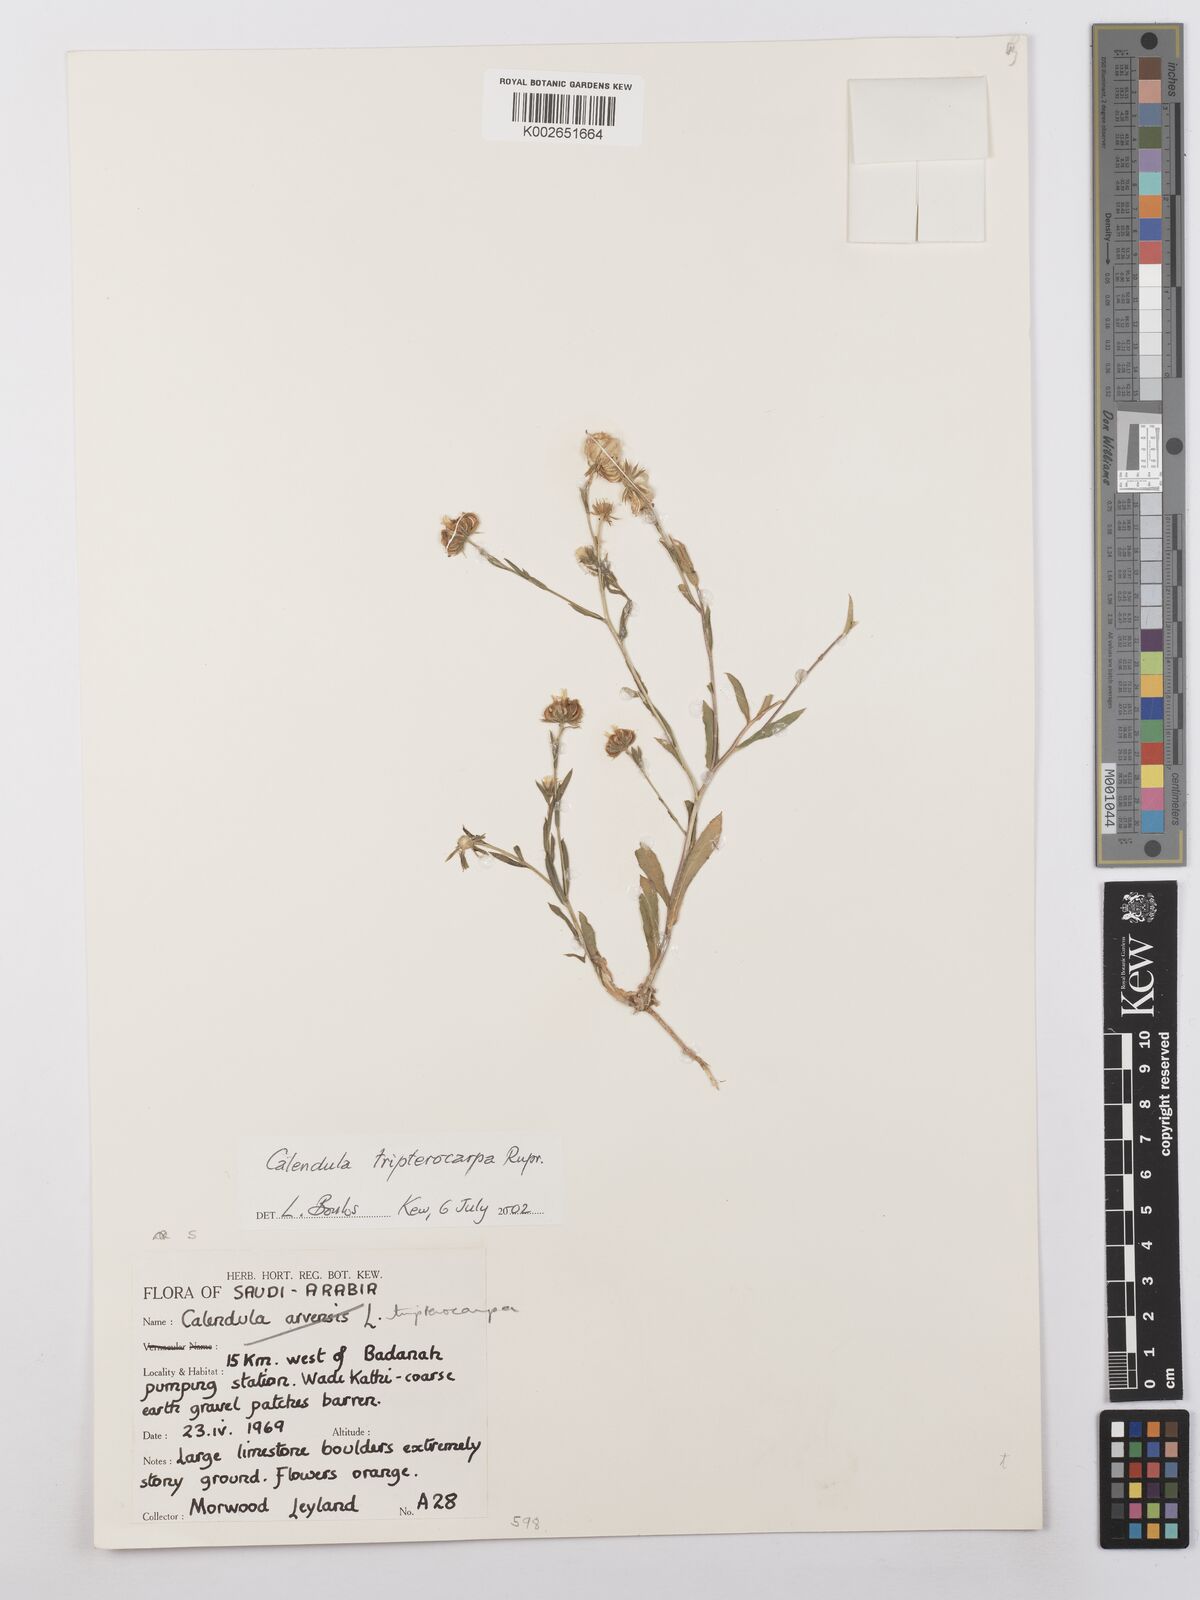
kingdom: Plantae
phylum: Tracheophyta
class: Magnoliopsida
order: Asterales
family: Asteraceae
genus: Calendula
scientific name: Calendula tripterocarpa
